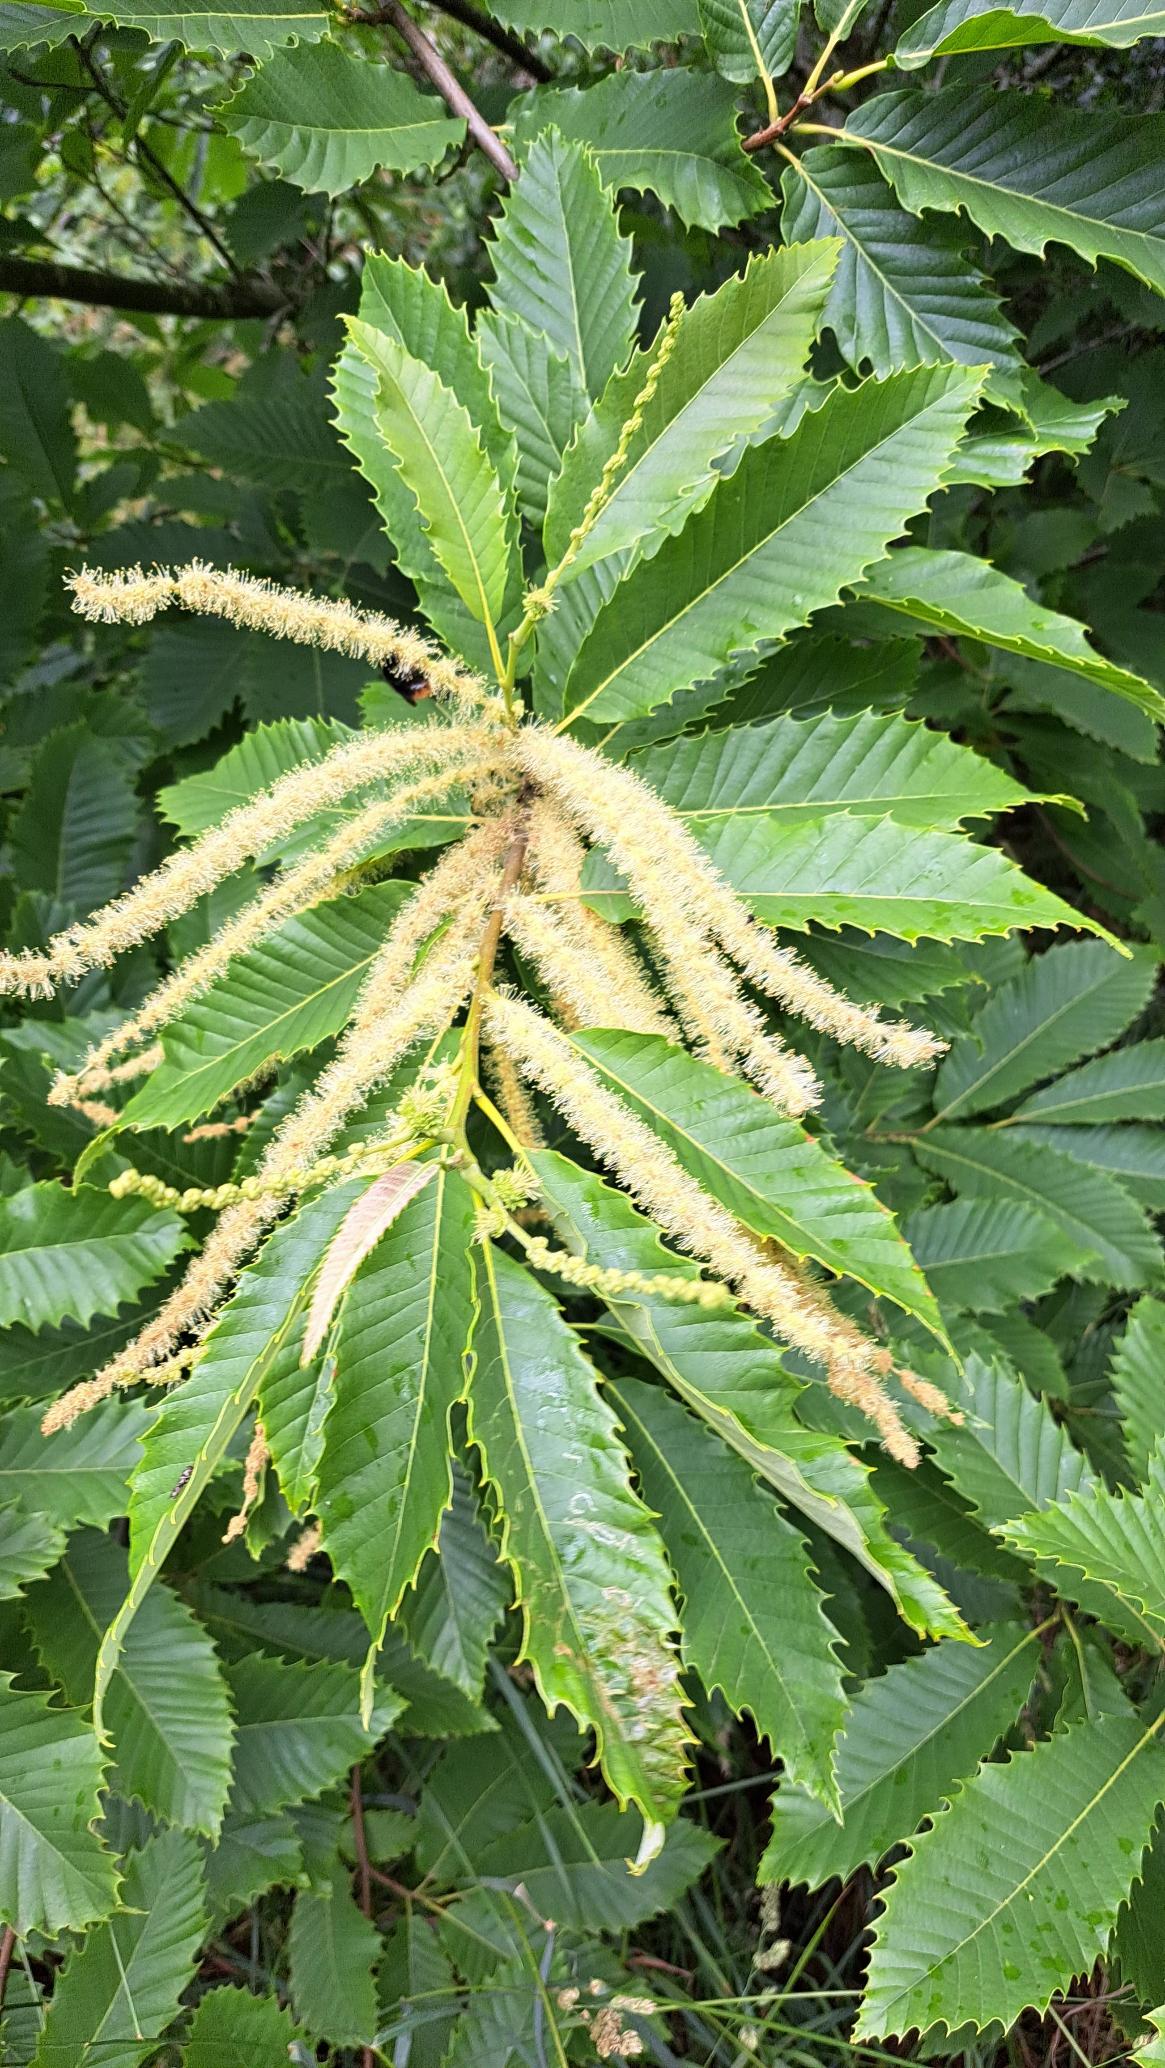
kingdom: Plantae
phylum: Tracheophyta
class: Magnoliopsida
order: Fagales
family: Fagaceae
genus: Castanea
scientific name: Castanea sativa
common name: Ægte kastanie
